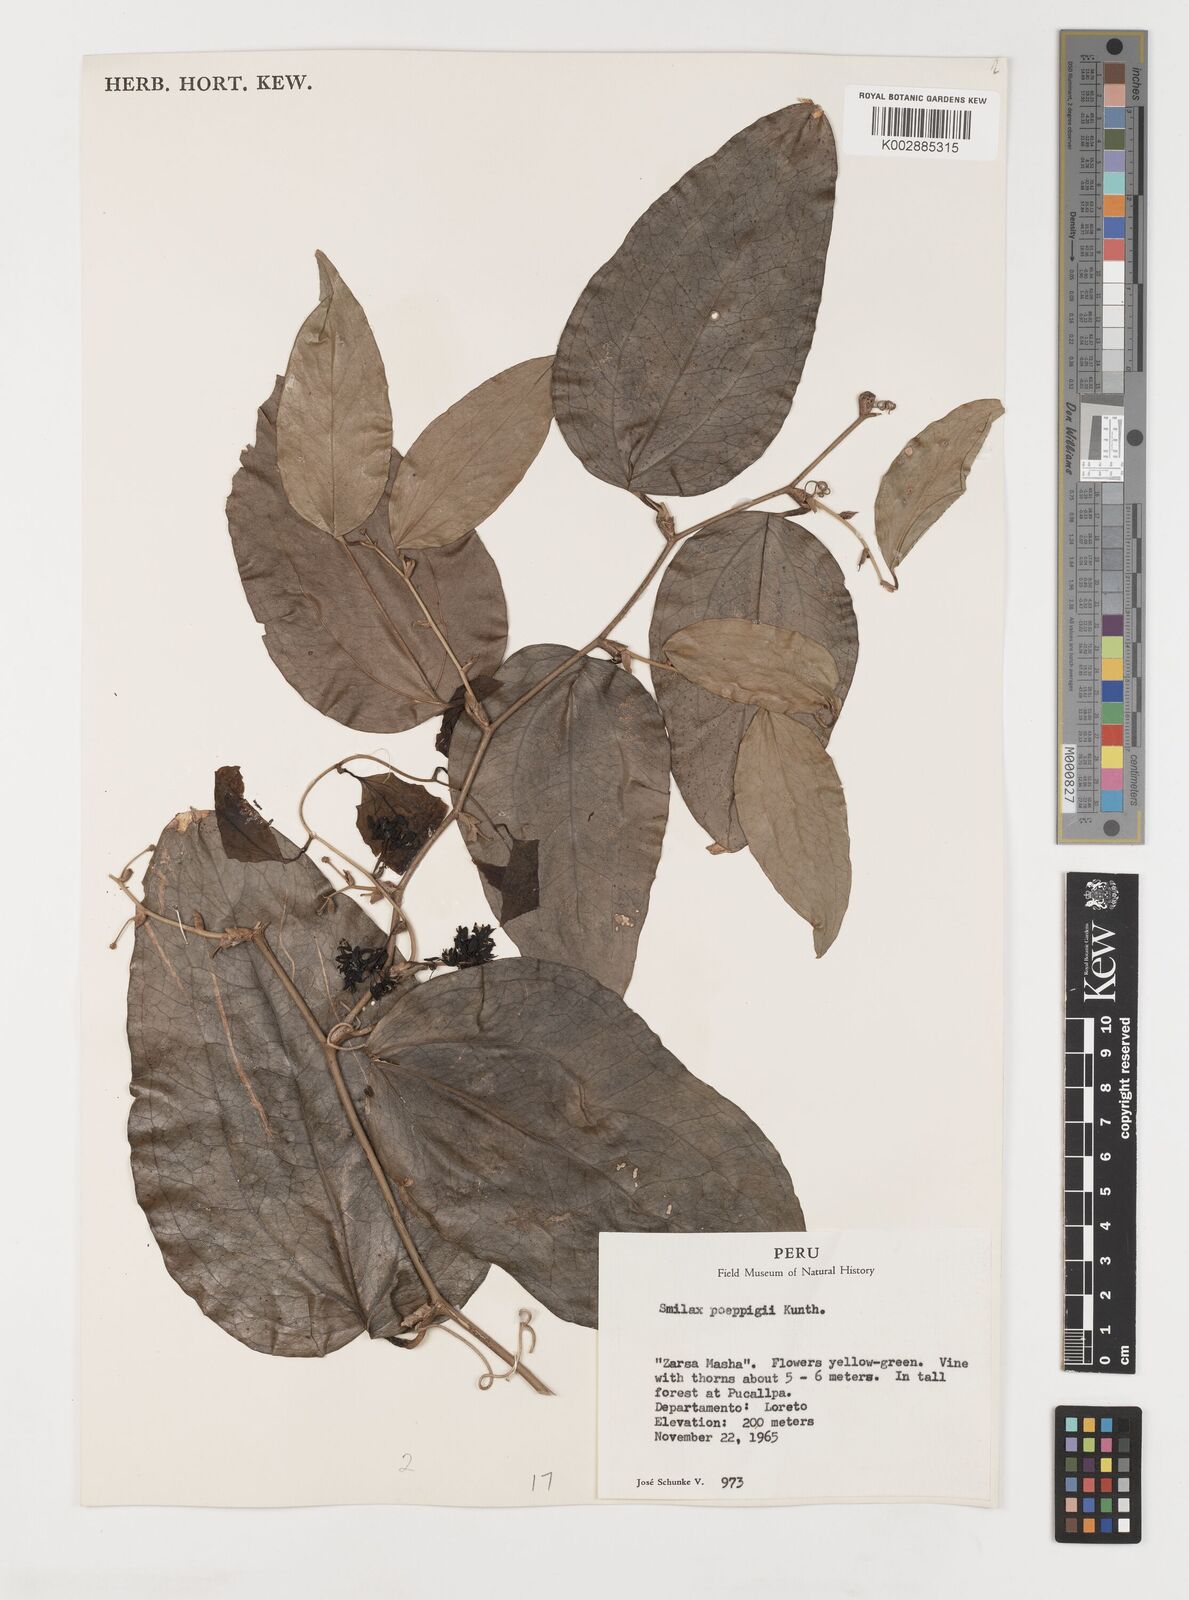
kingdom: Plantae
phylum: Tracheophyta
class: Liliopsida
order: Liliales
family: Smilacaceae
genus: Smilax
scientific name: Smilax purhampuy
